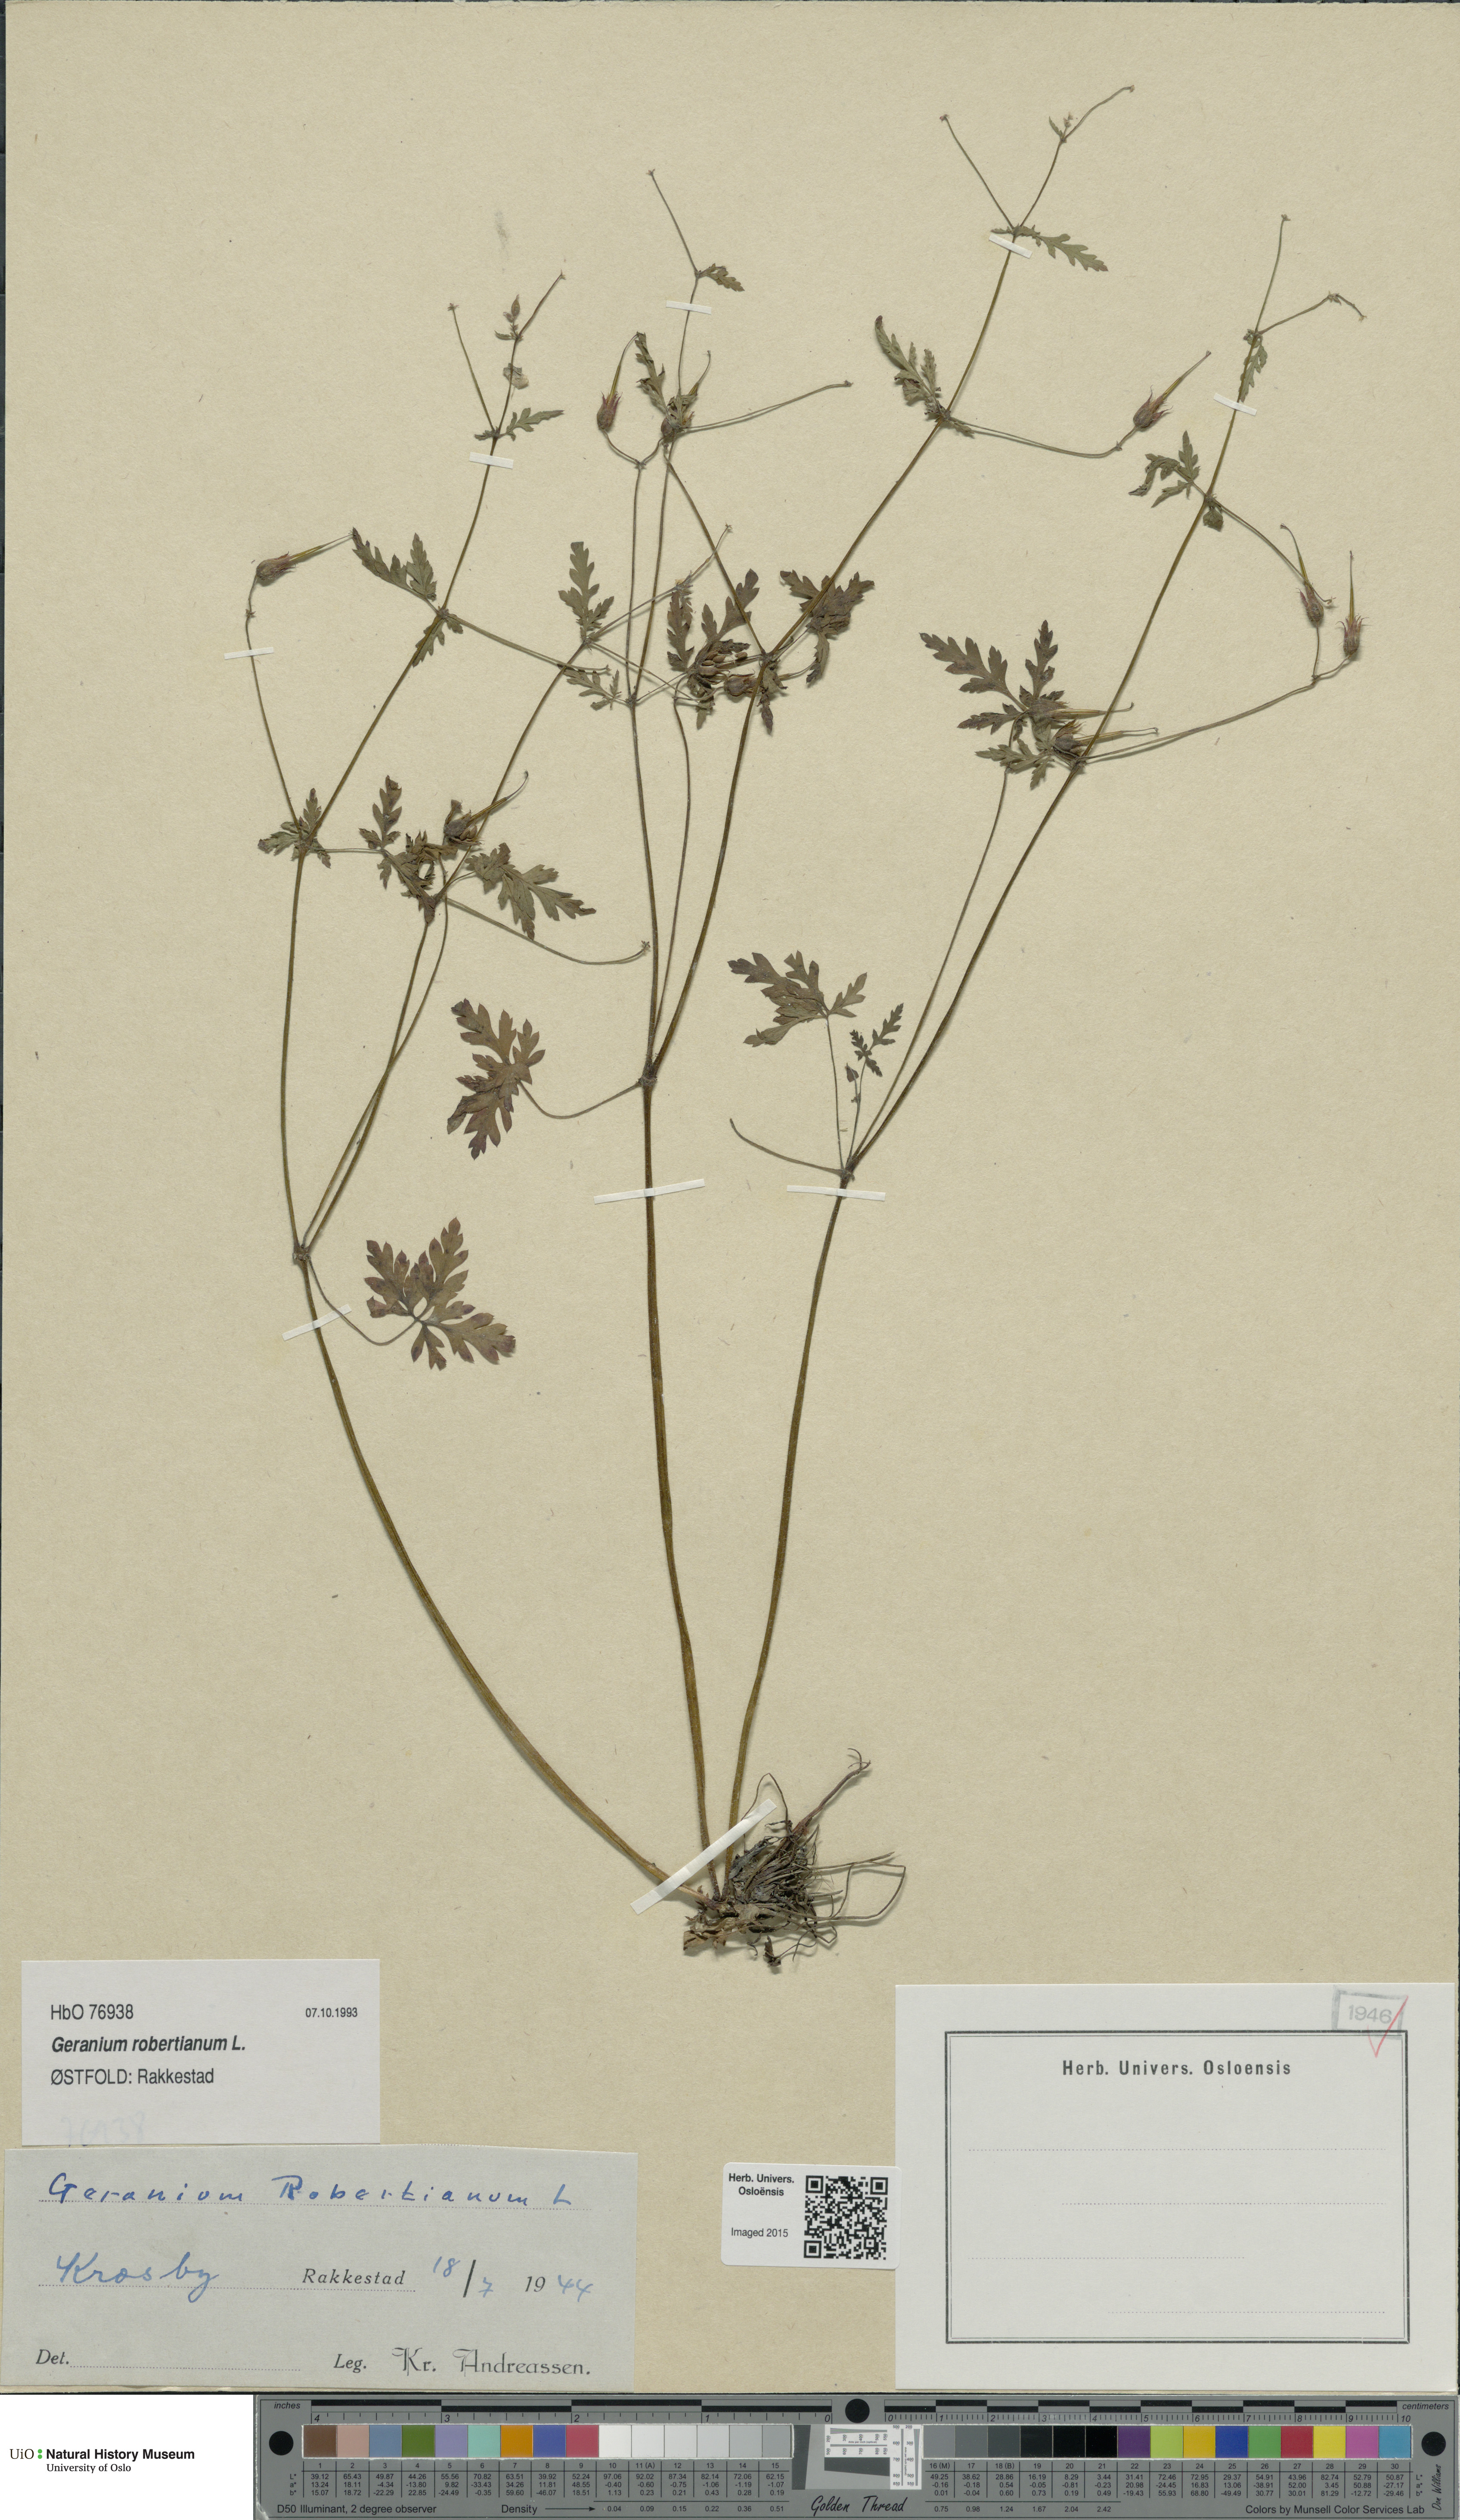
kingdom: Plantae
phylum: Tracheophyta
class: Magnoliopsida
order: Geraniales
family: Geraniaceae
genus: Geranium
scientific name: Geranium robertianum
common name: Herb-robert
